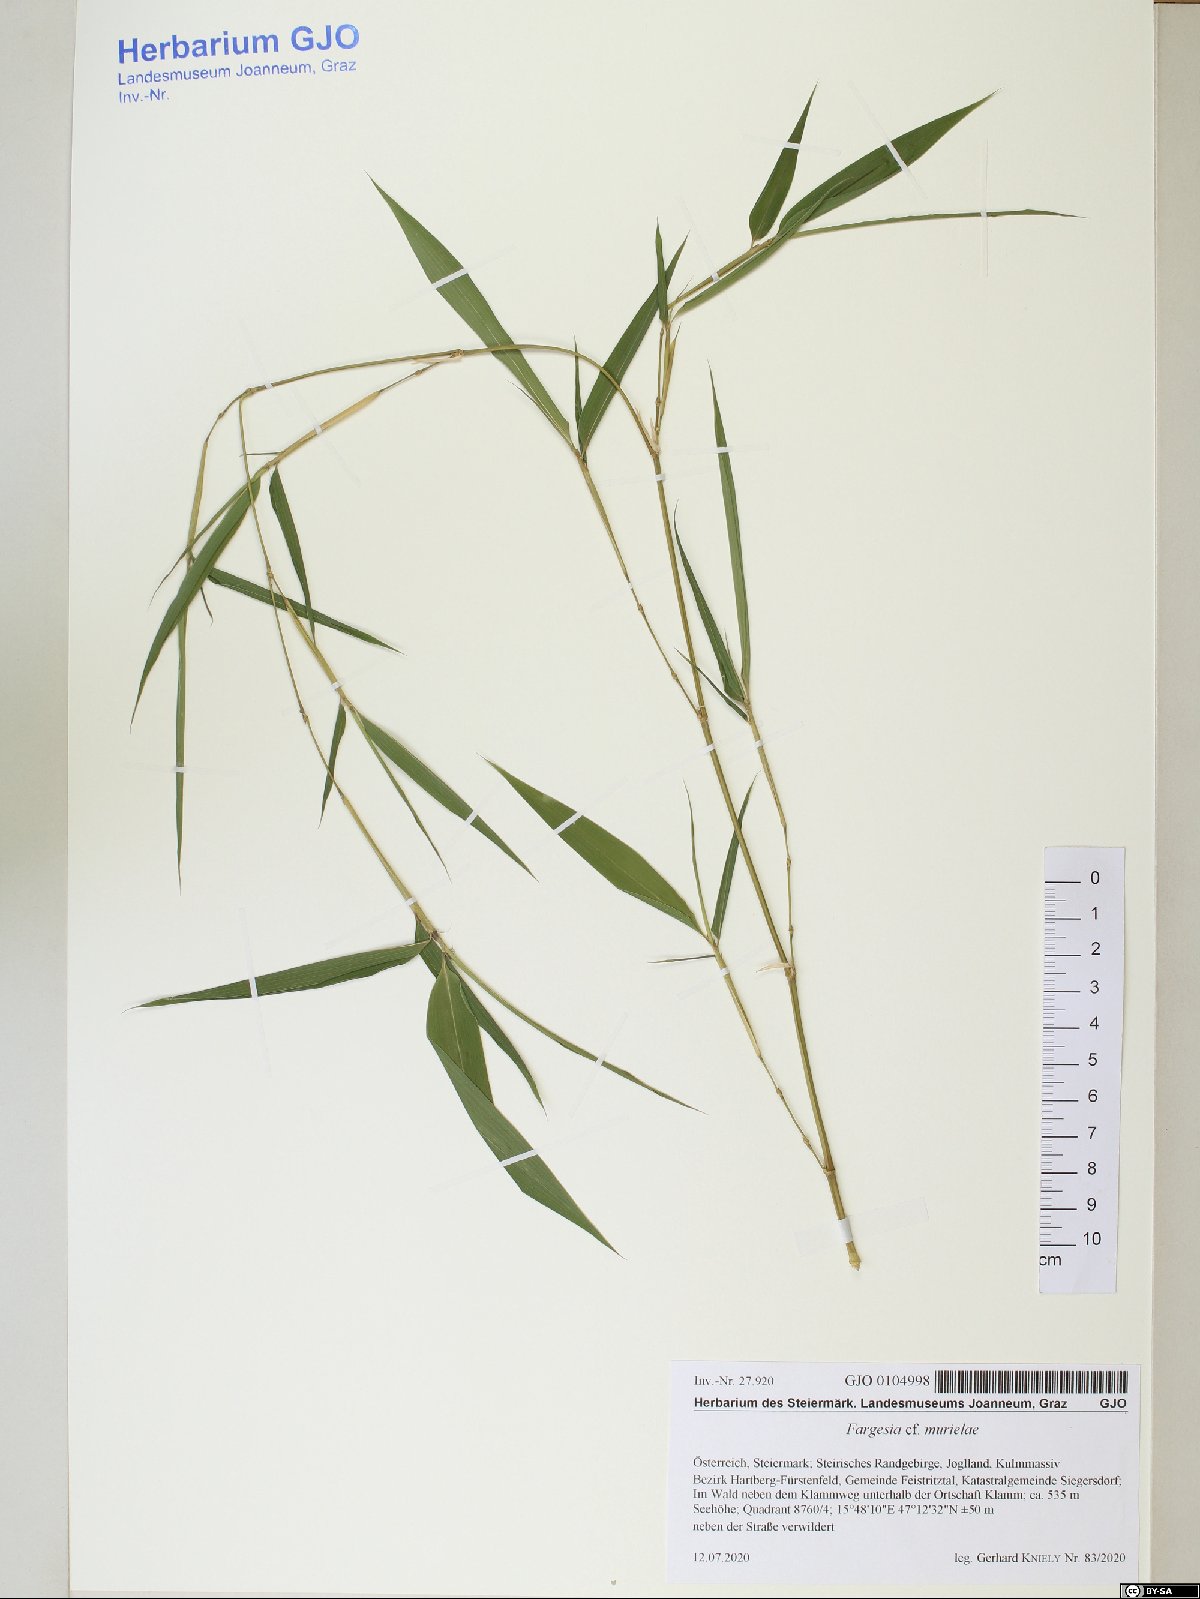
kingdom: Plantae
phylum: Tracheophyta
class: Liliopsida
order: Poales
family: Poaceae
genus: Fargesia
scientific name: Fargesia murielae
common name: Umbrella bamboo
